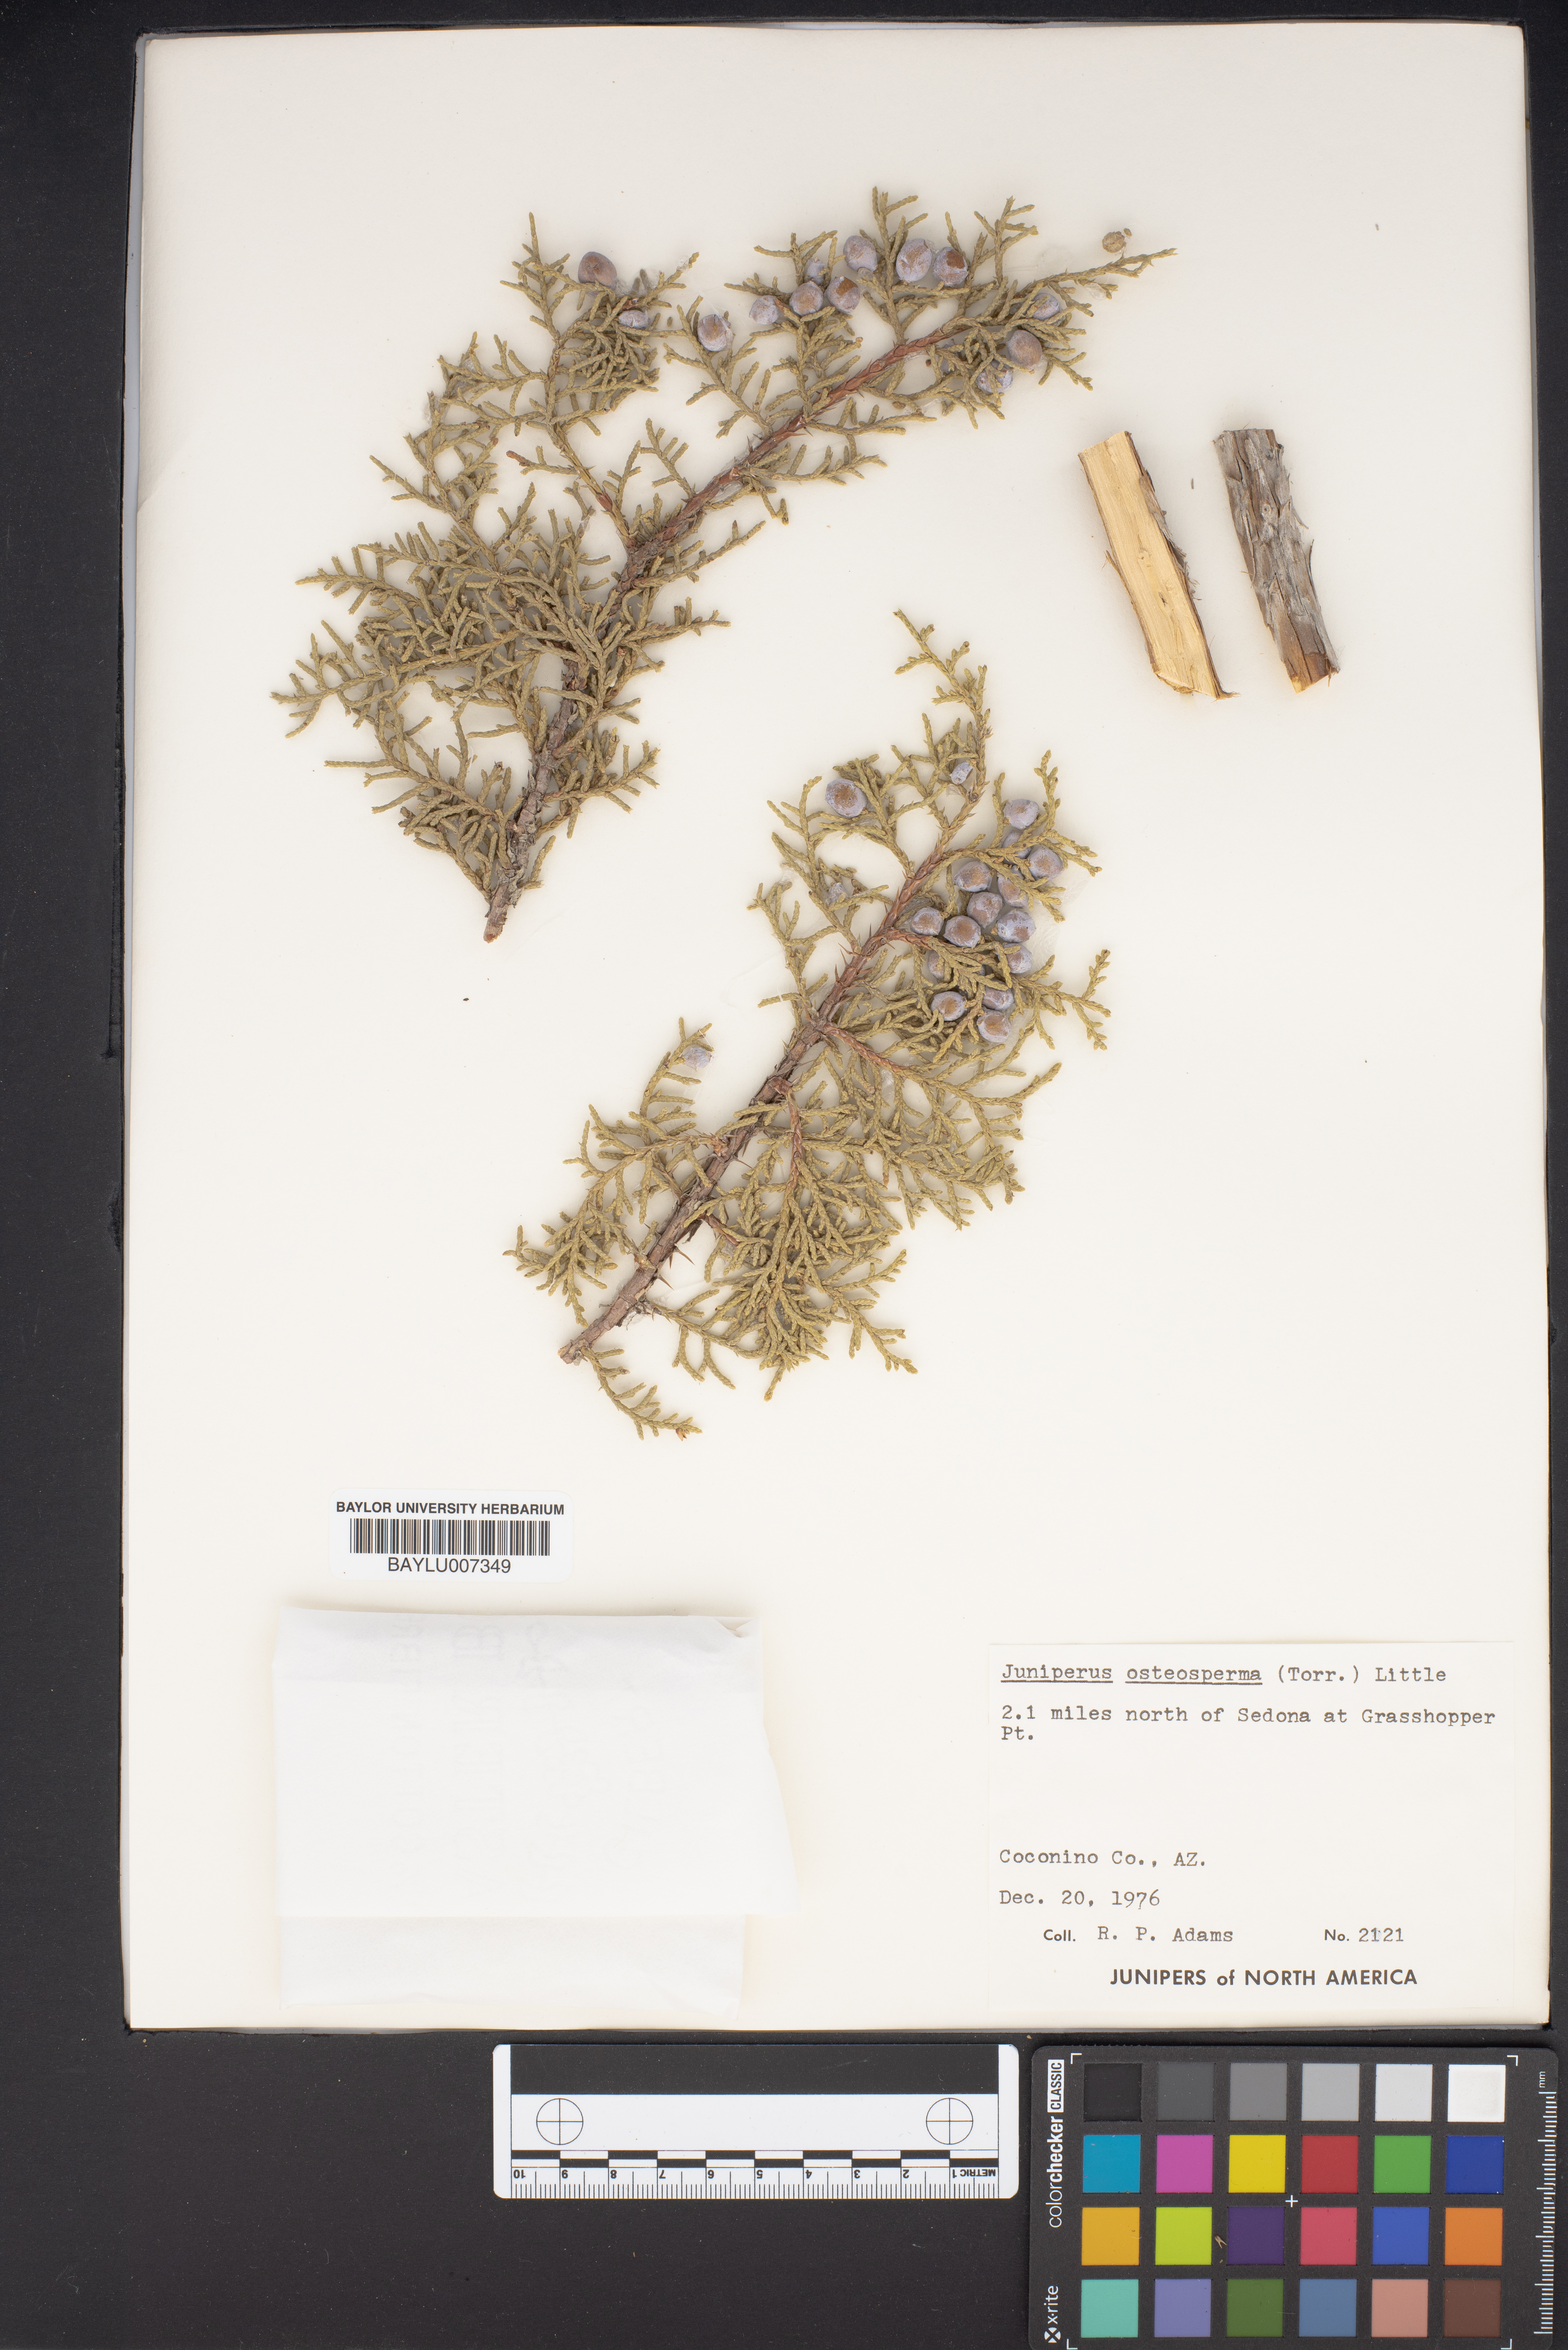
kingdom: Plantae
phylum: Tracheophyta
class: Pinopsida
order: Pinales
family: Cupressaceae
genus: Juniperus
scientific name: Juniperus osteosperma
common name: Utah juniper
